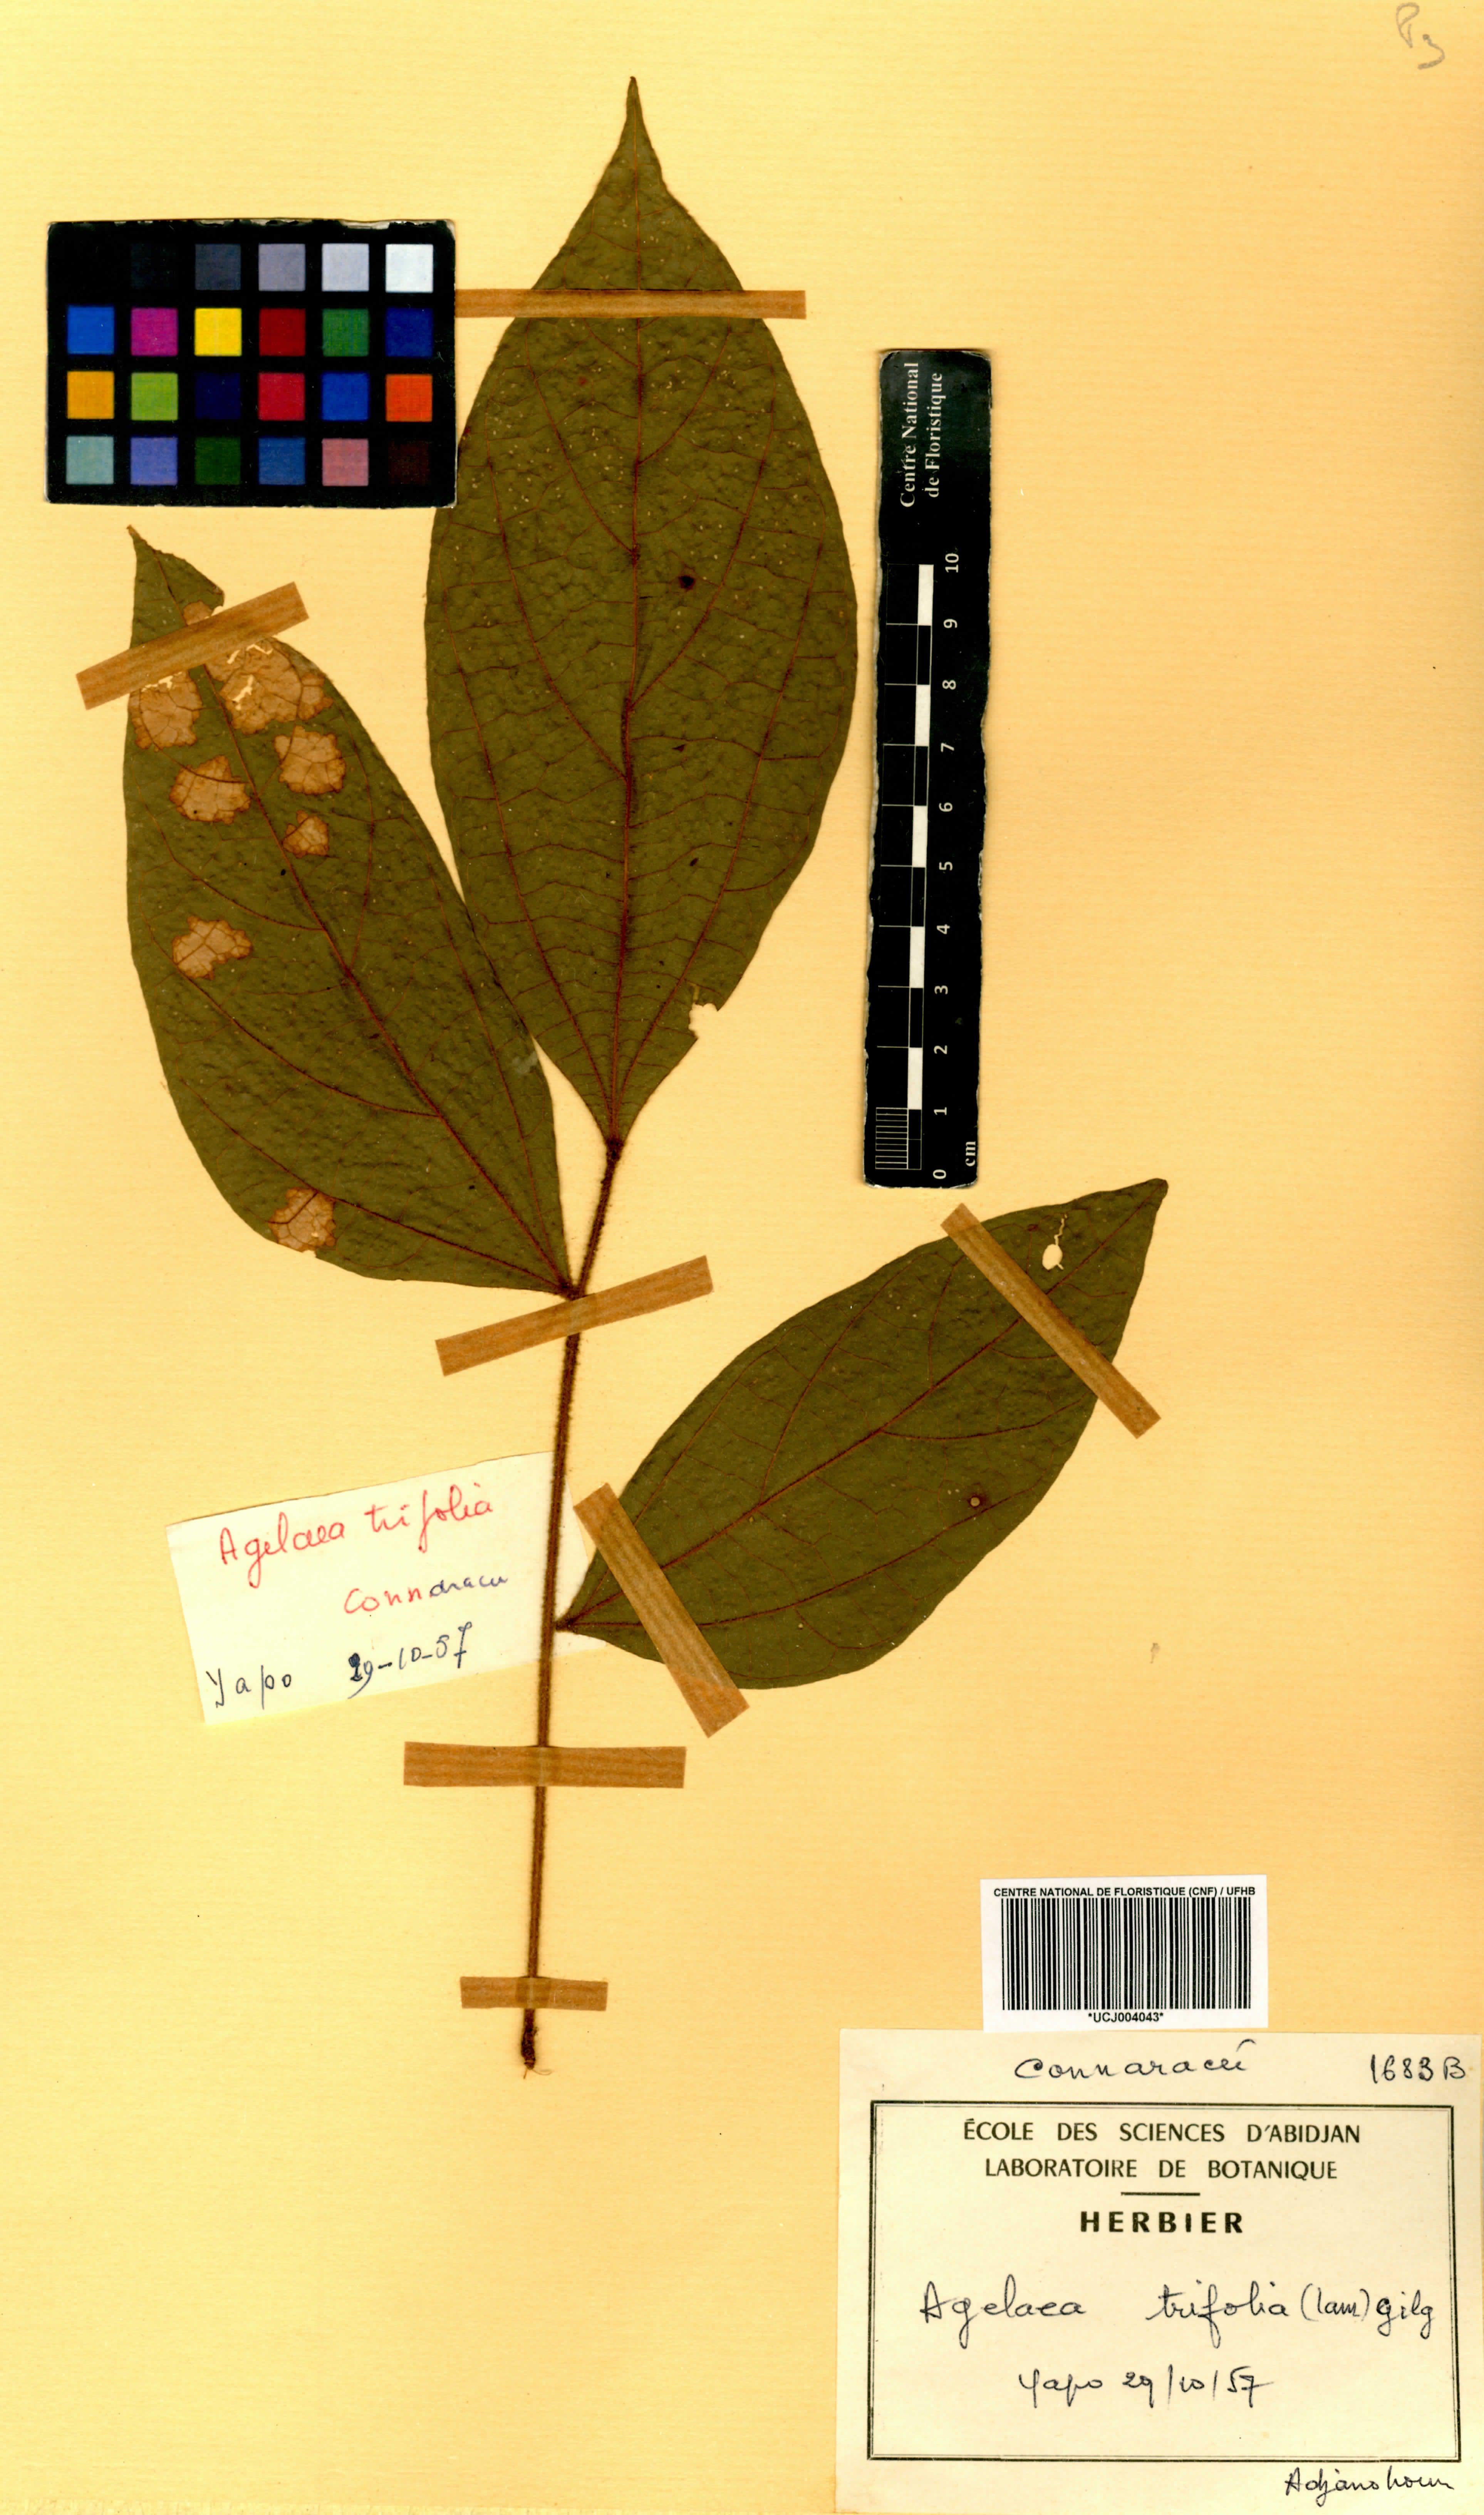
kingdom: Plantae
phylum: Tracheophyta
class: Magnoliopsida
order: Oxalidales
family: Connaraceae
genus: Agelaea
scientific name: Agelaea pentagyna
